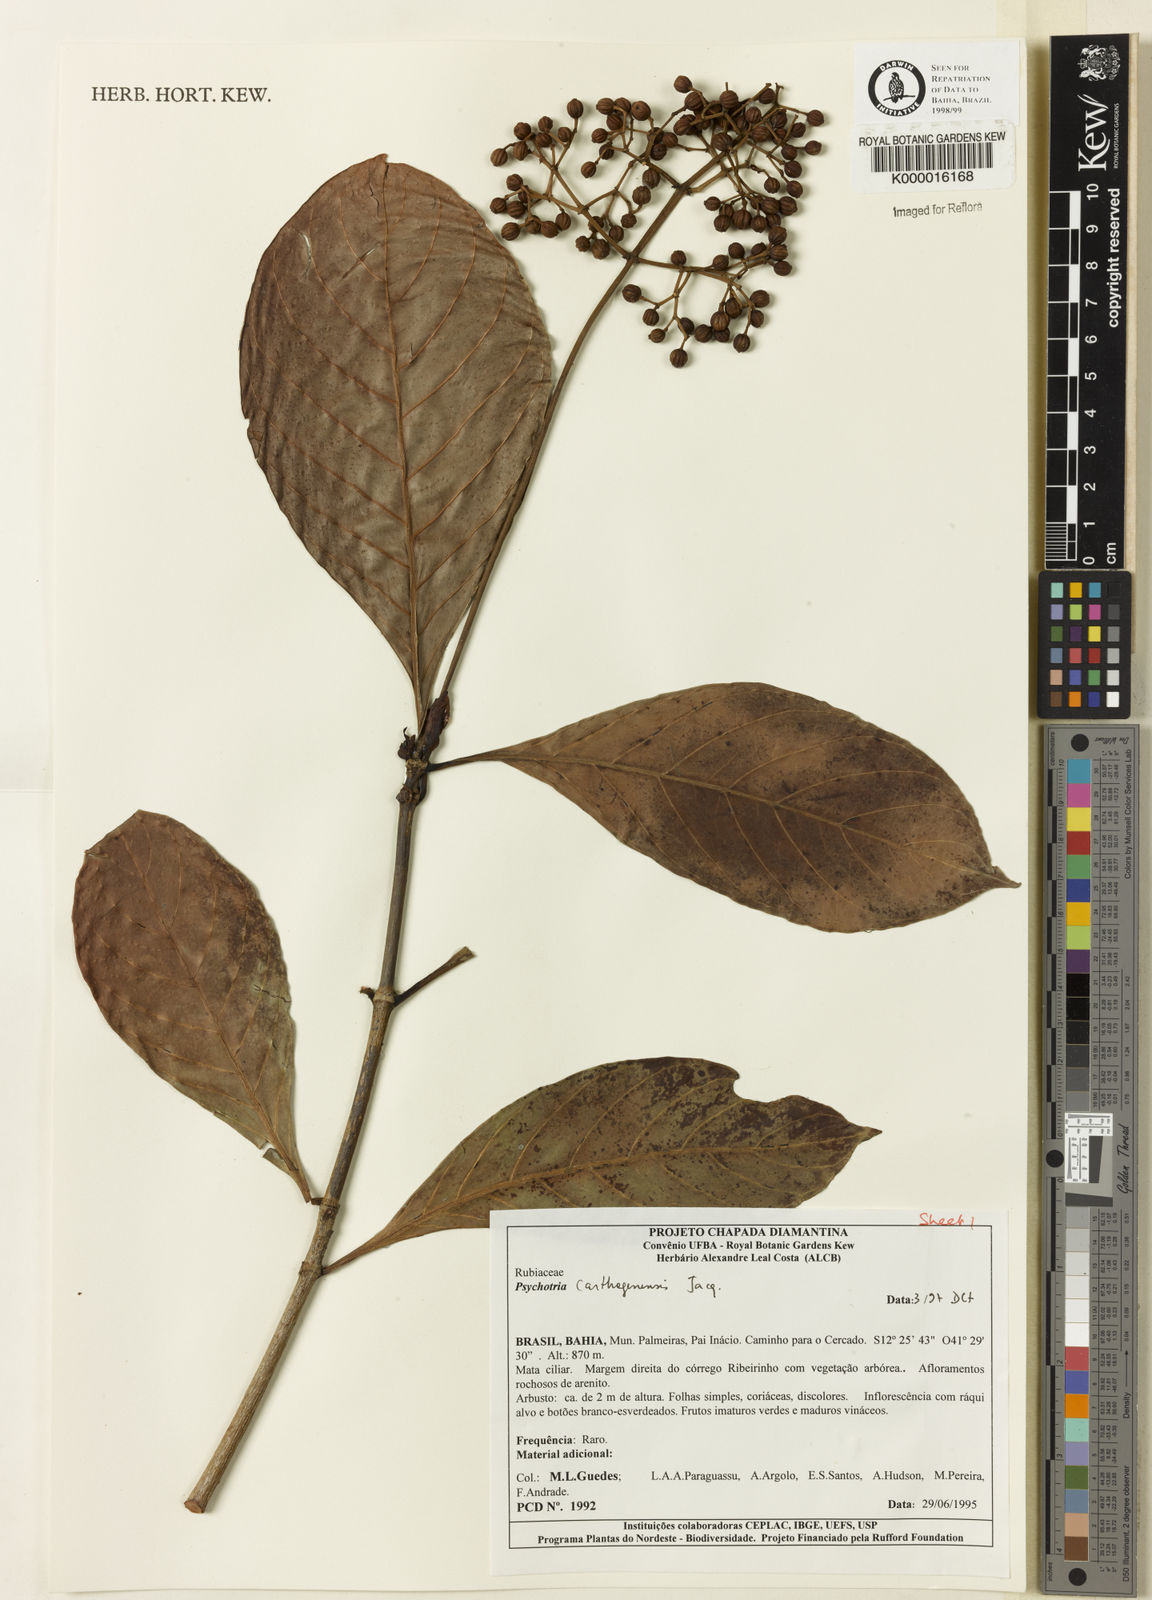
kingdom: Plantae
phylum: Tracheophyta
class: Magnoliopsida
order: Gentianales
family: Rubiaceae
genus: Psychotria
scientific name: Psychotria carthagenensis
